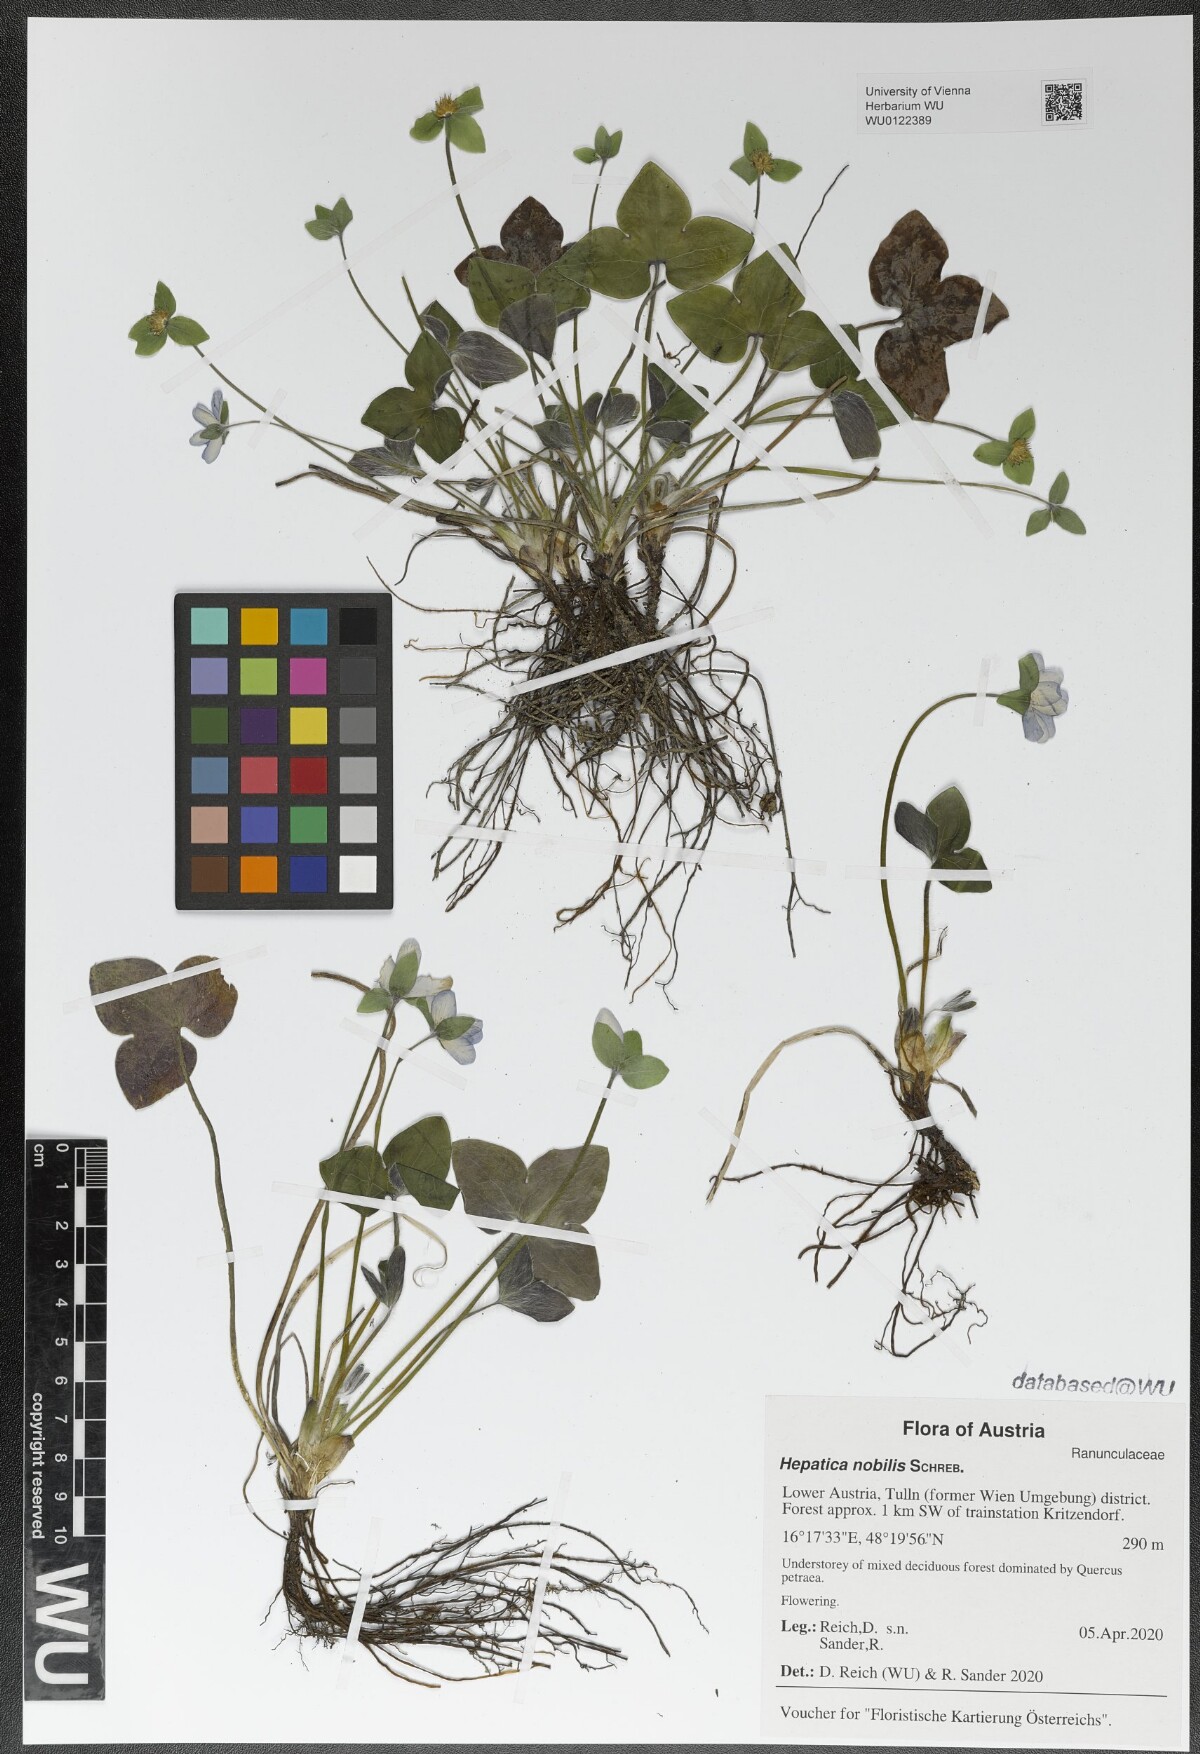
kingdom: Plantae
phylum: Tracheophyta
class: Magnoliopsida
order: Ranunculales
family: Ranunculaceae
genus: Hepatica
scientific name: Hepatica nobilis
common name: Liverleaf
